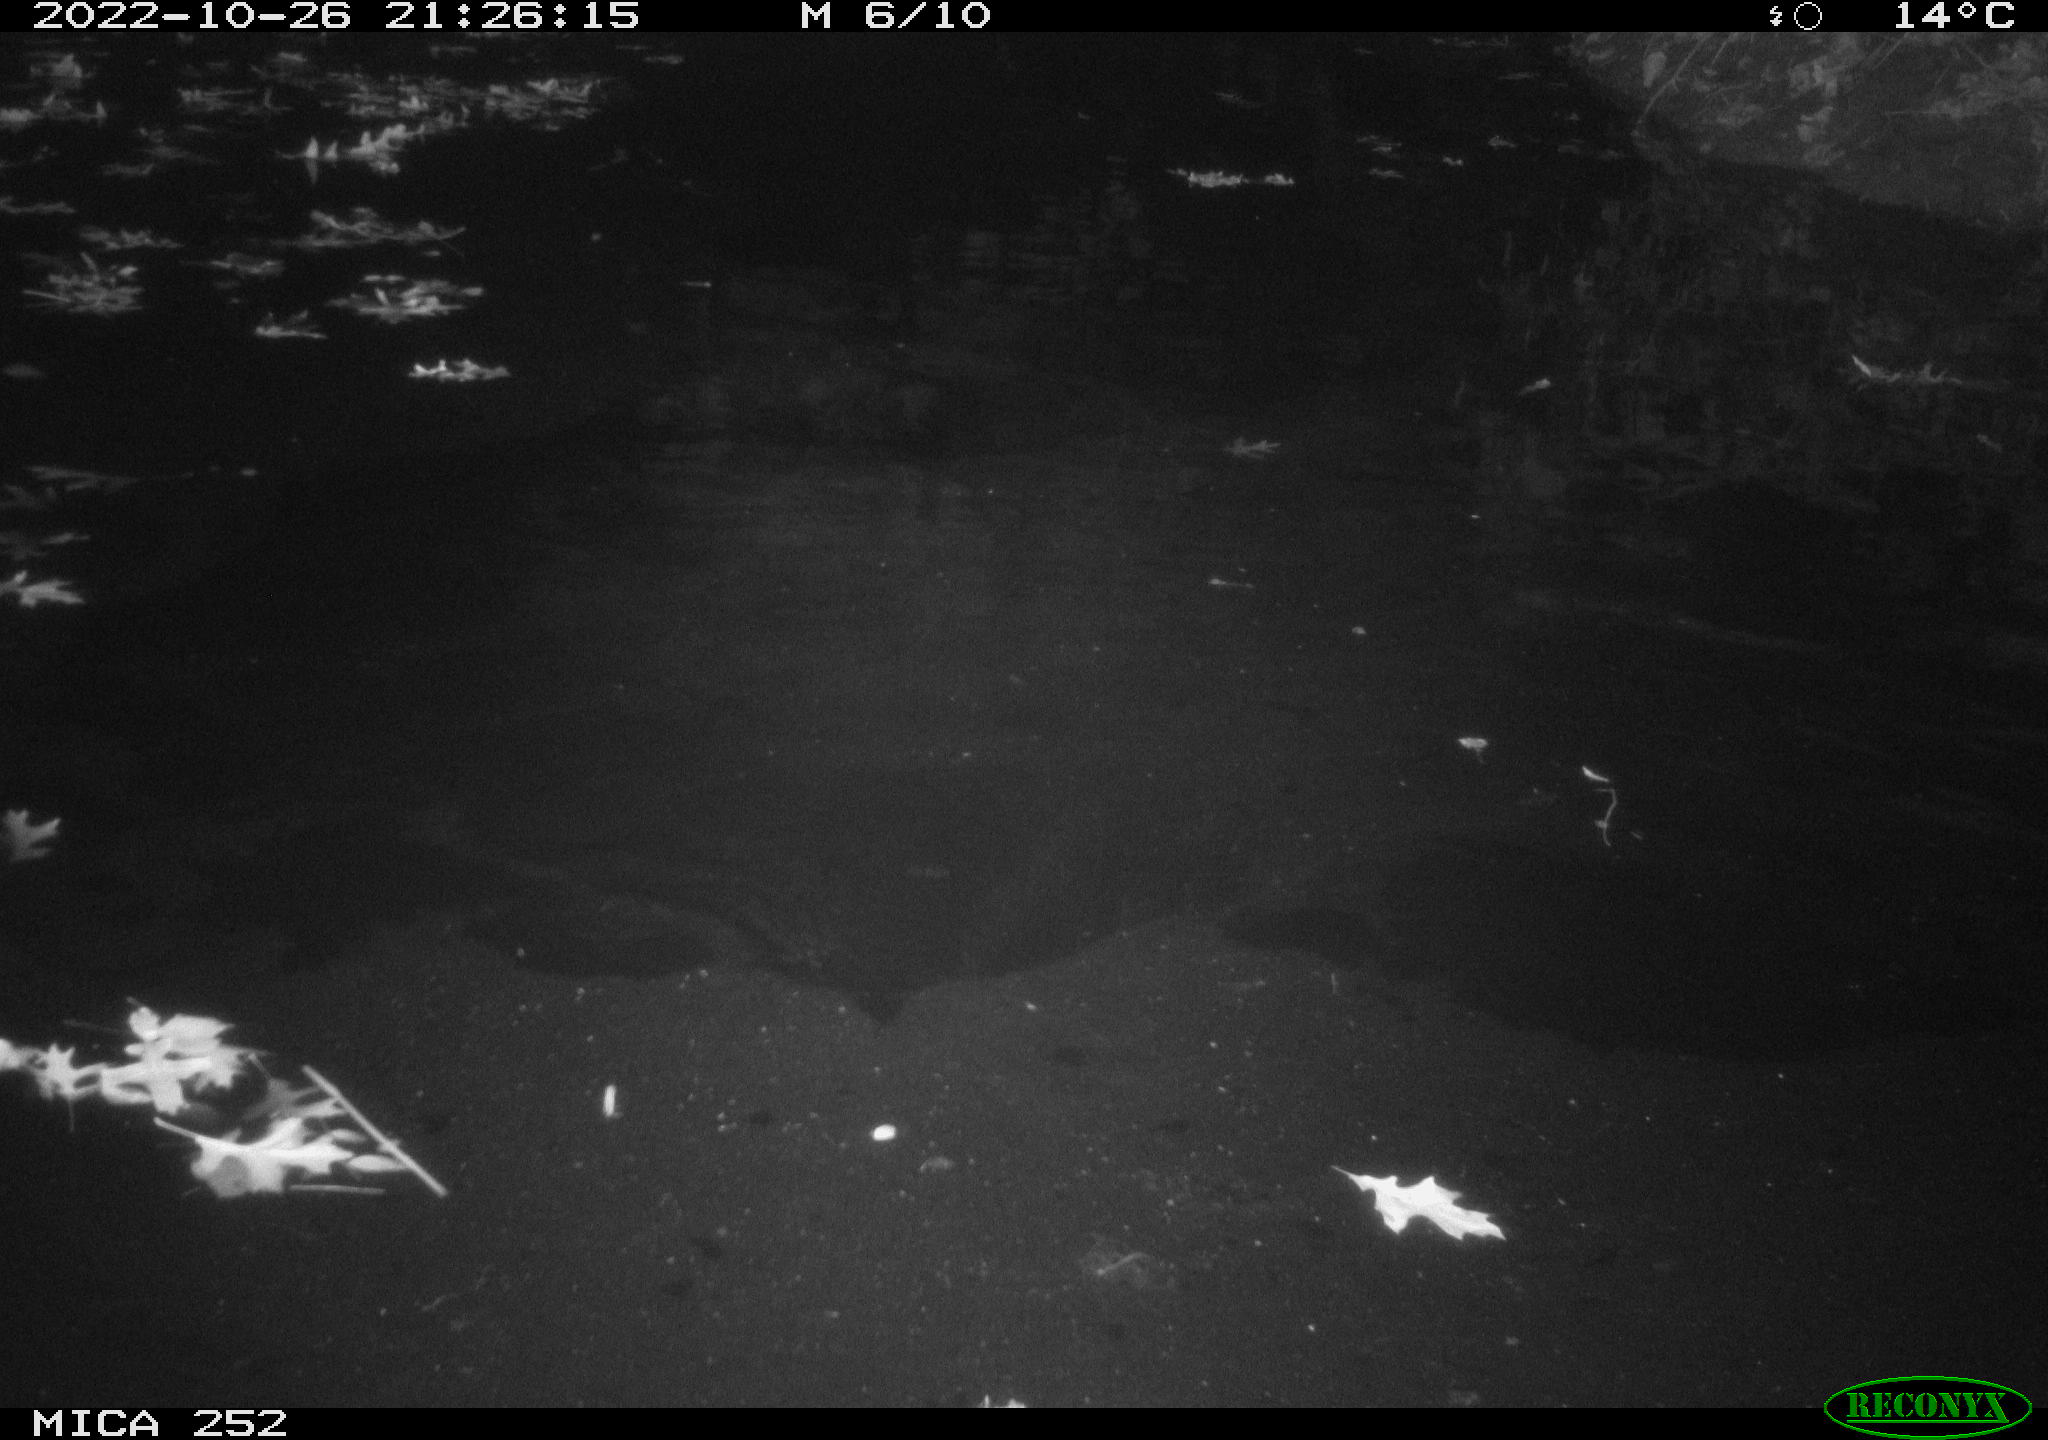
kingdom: Animalia
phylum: Chordata
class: Mammalia
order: Rodentia
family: Castoridae
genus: Castor
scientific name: Castor fiber
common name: Eurasian beaver
